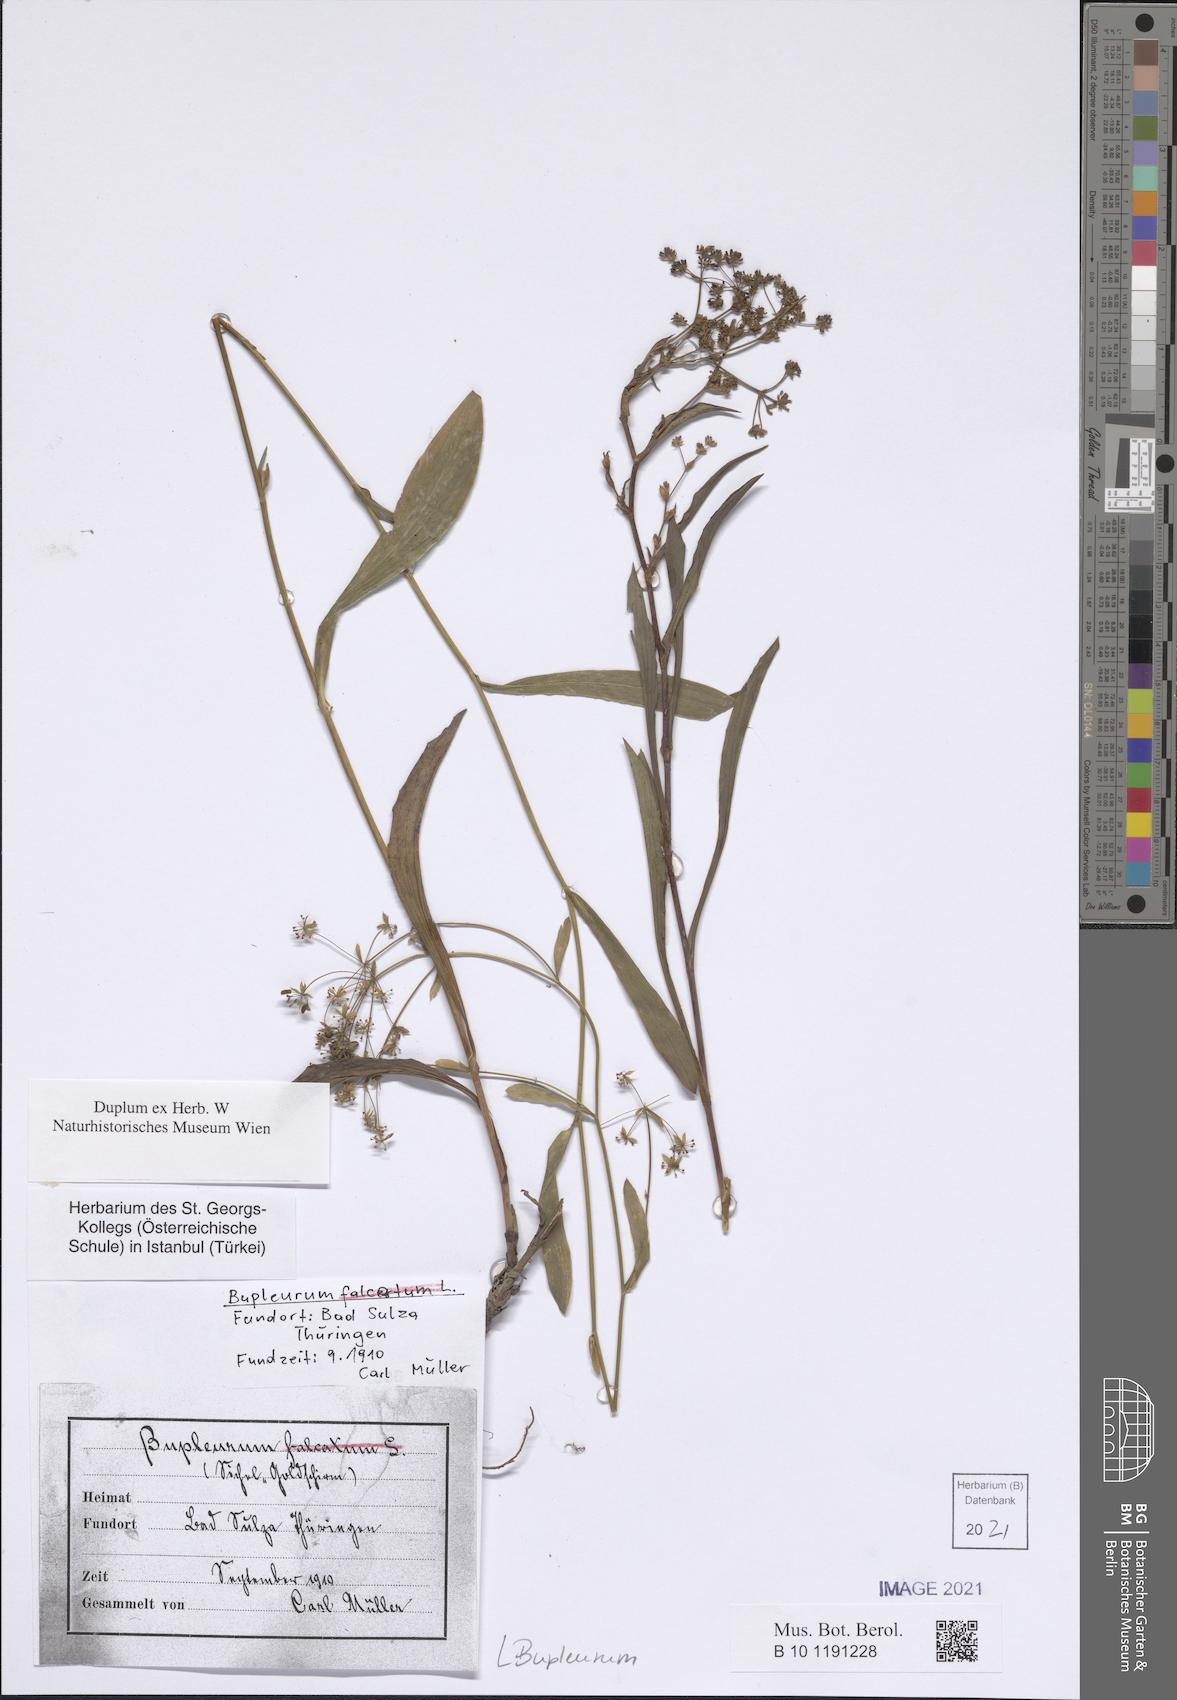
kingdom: Plantae
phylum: Tracheophyta
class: Magnoliopsida
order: Apiales
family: Apiaceae
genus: Bupleurum
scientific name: Bupleurum
